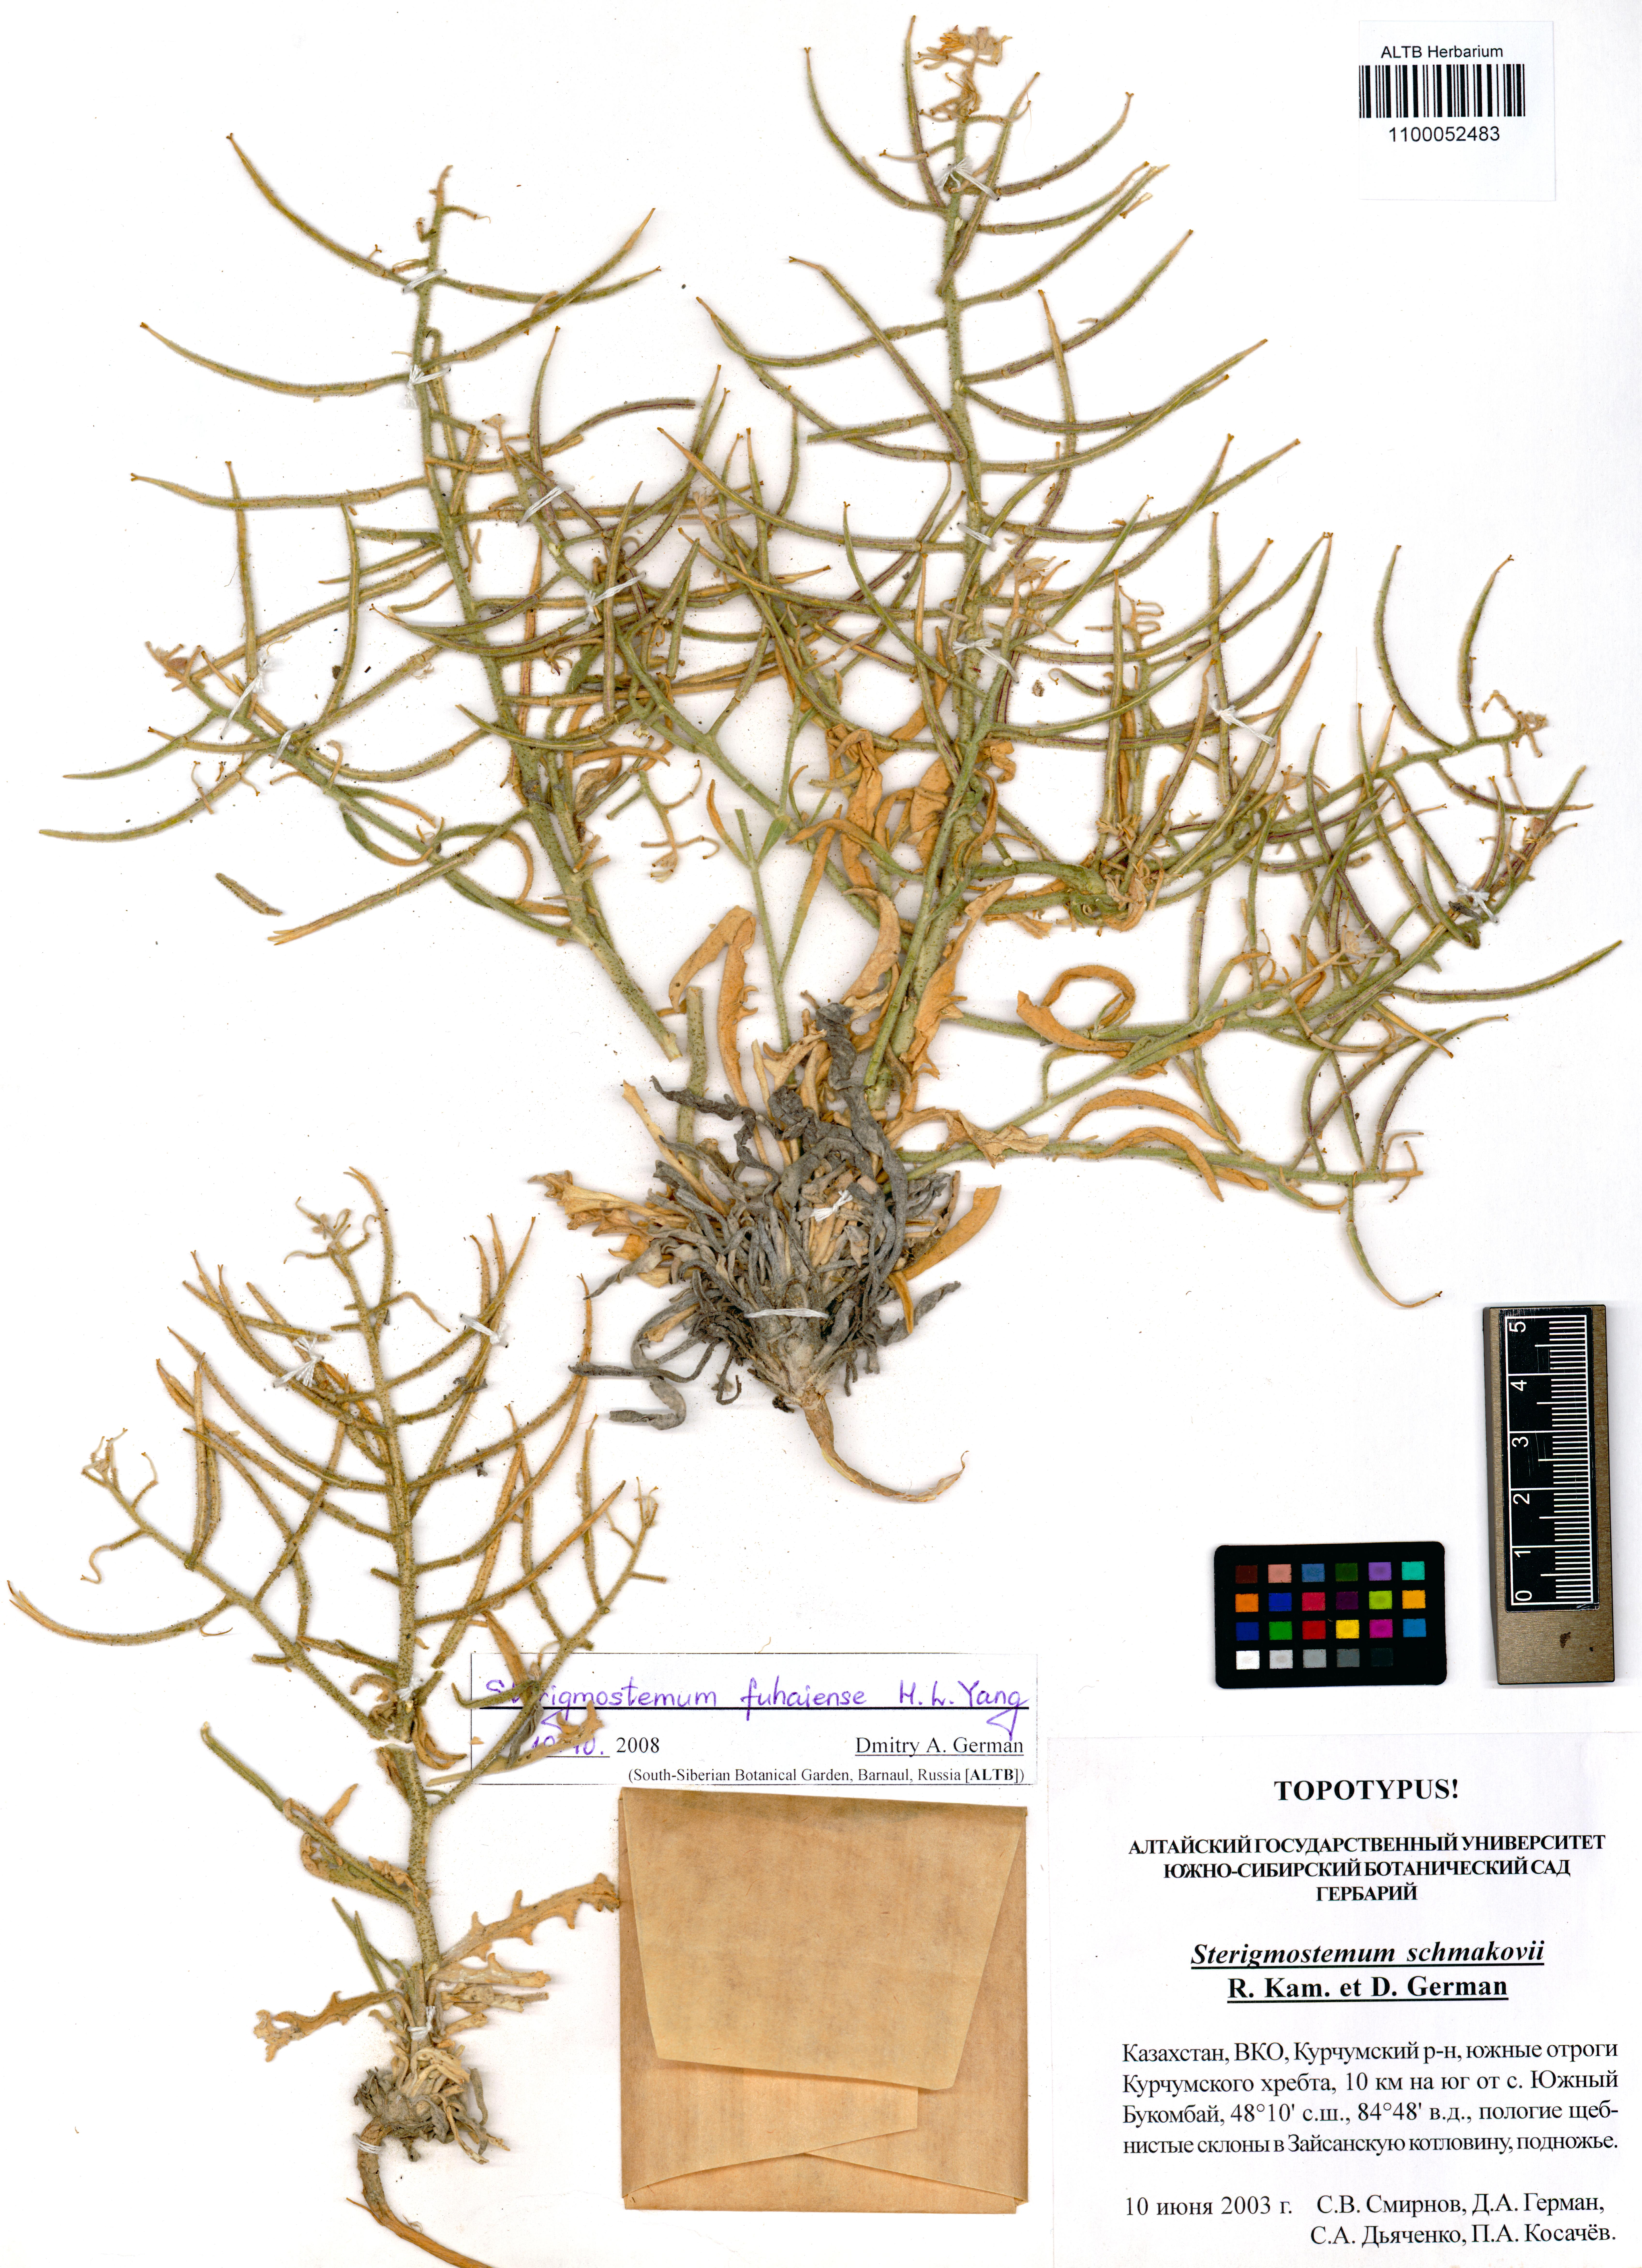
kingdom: Plantae
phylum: Tracheophyta
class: Magnoliopsida
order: Brassicales
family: Brassicaceae
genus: Sterigmostemum
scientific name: Sterigmostemum violaceum
